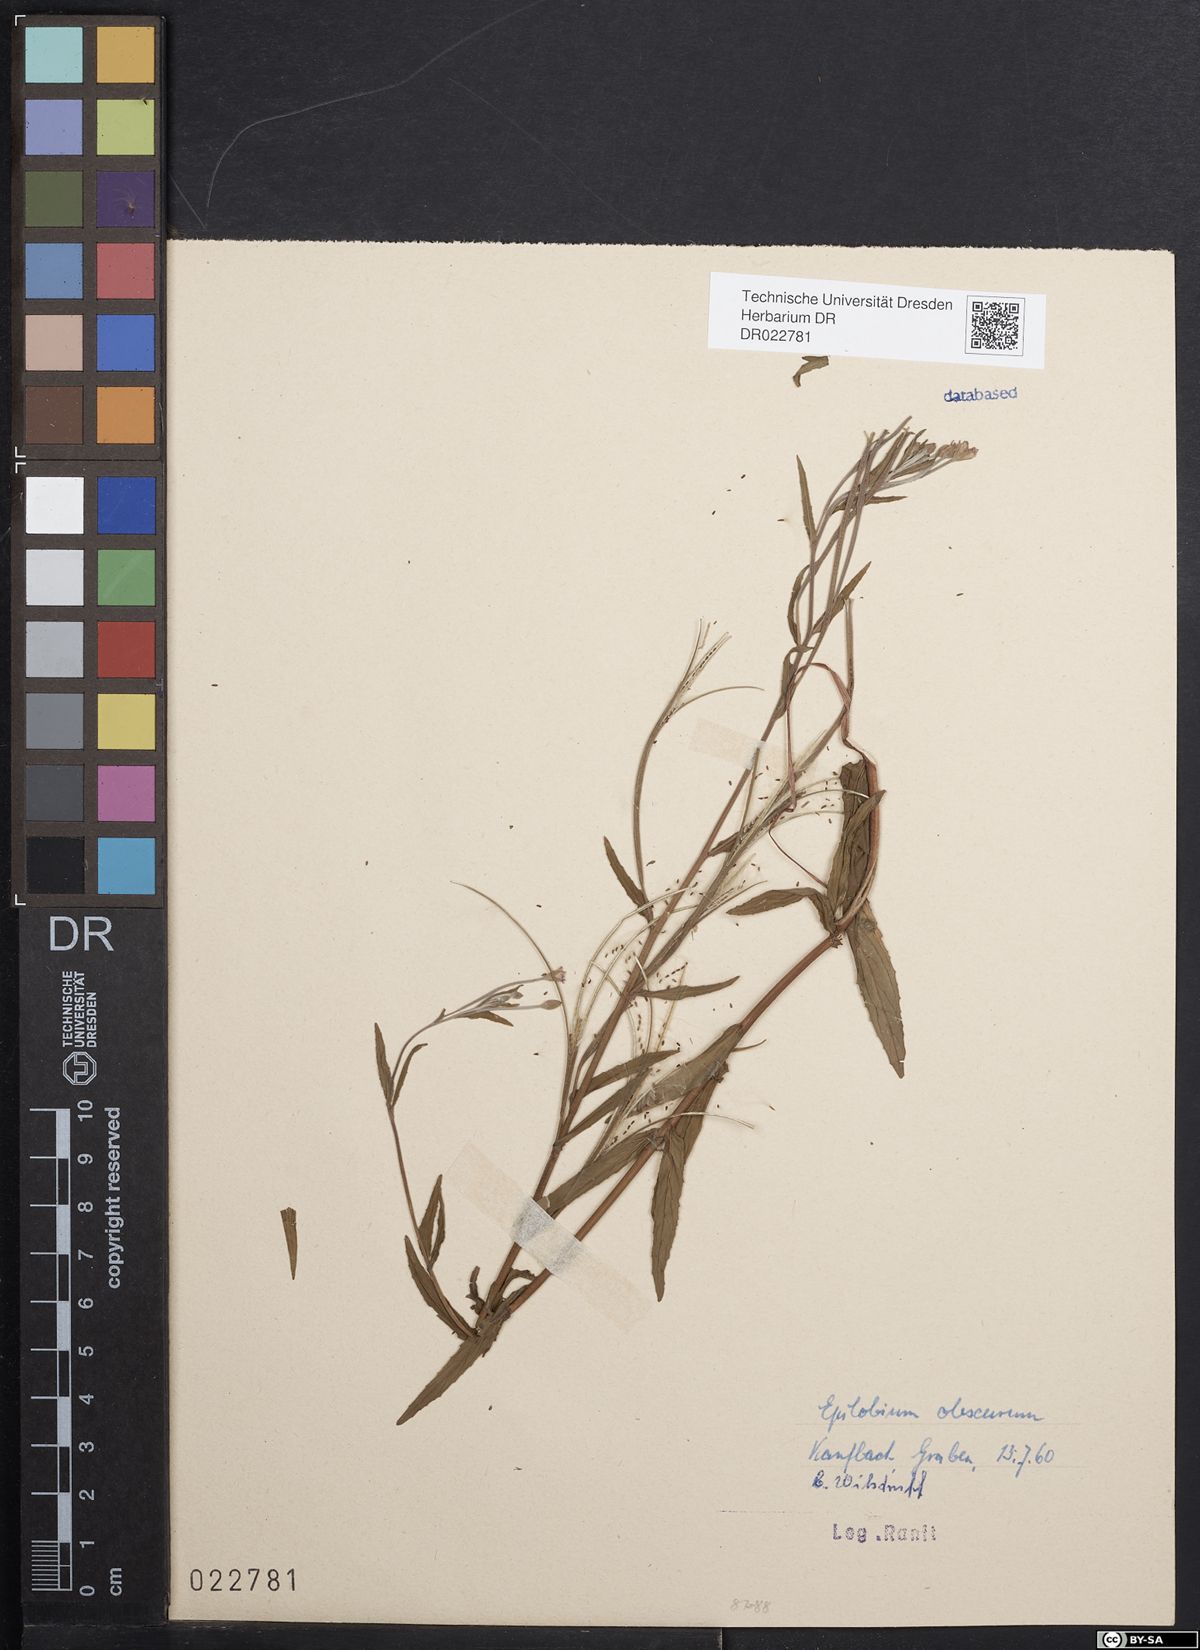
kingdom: Plantae
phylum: Tracheophyta
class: Magnoliopsida
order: Myrtales
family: Onagraceae
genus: Epilobium
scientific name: Epilobium palustre
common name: Marsh willowherb
